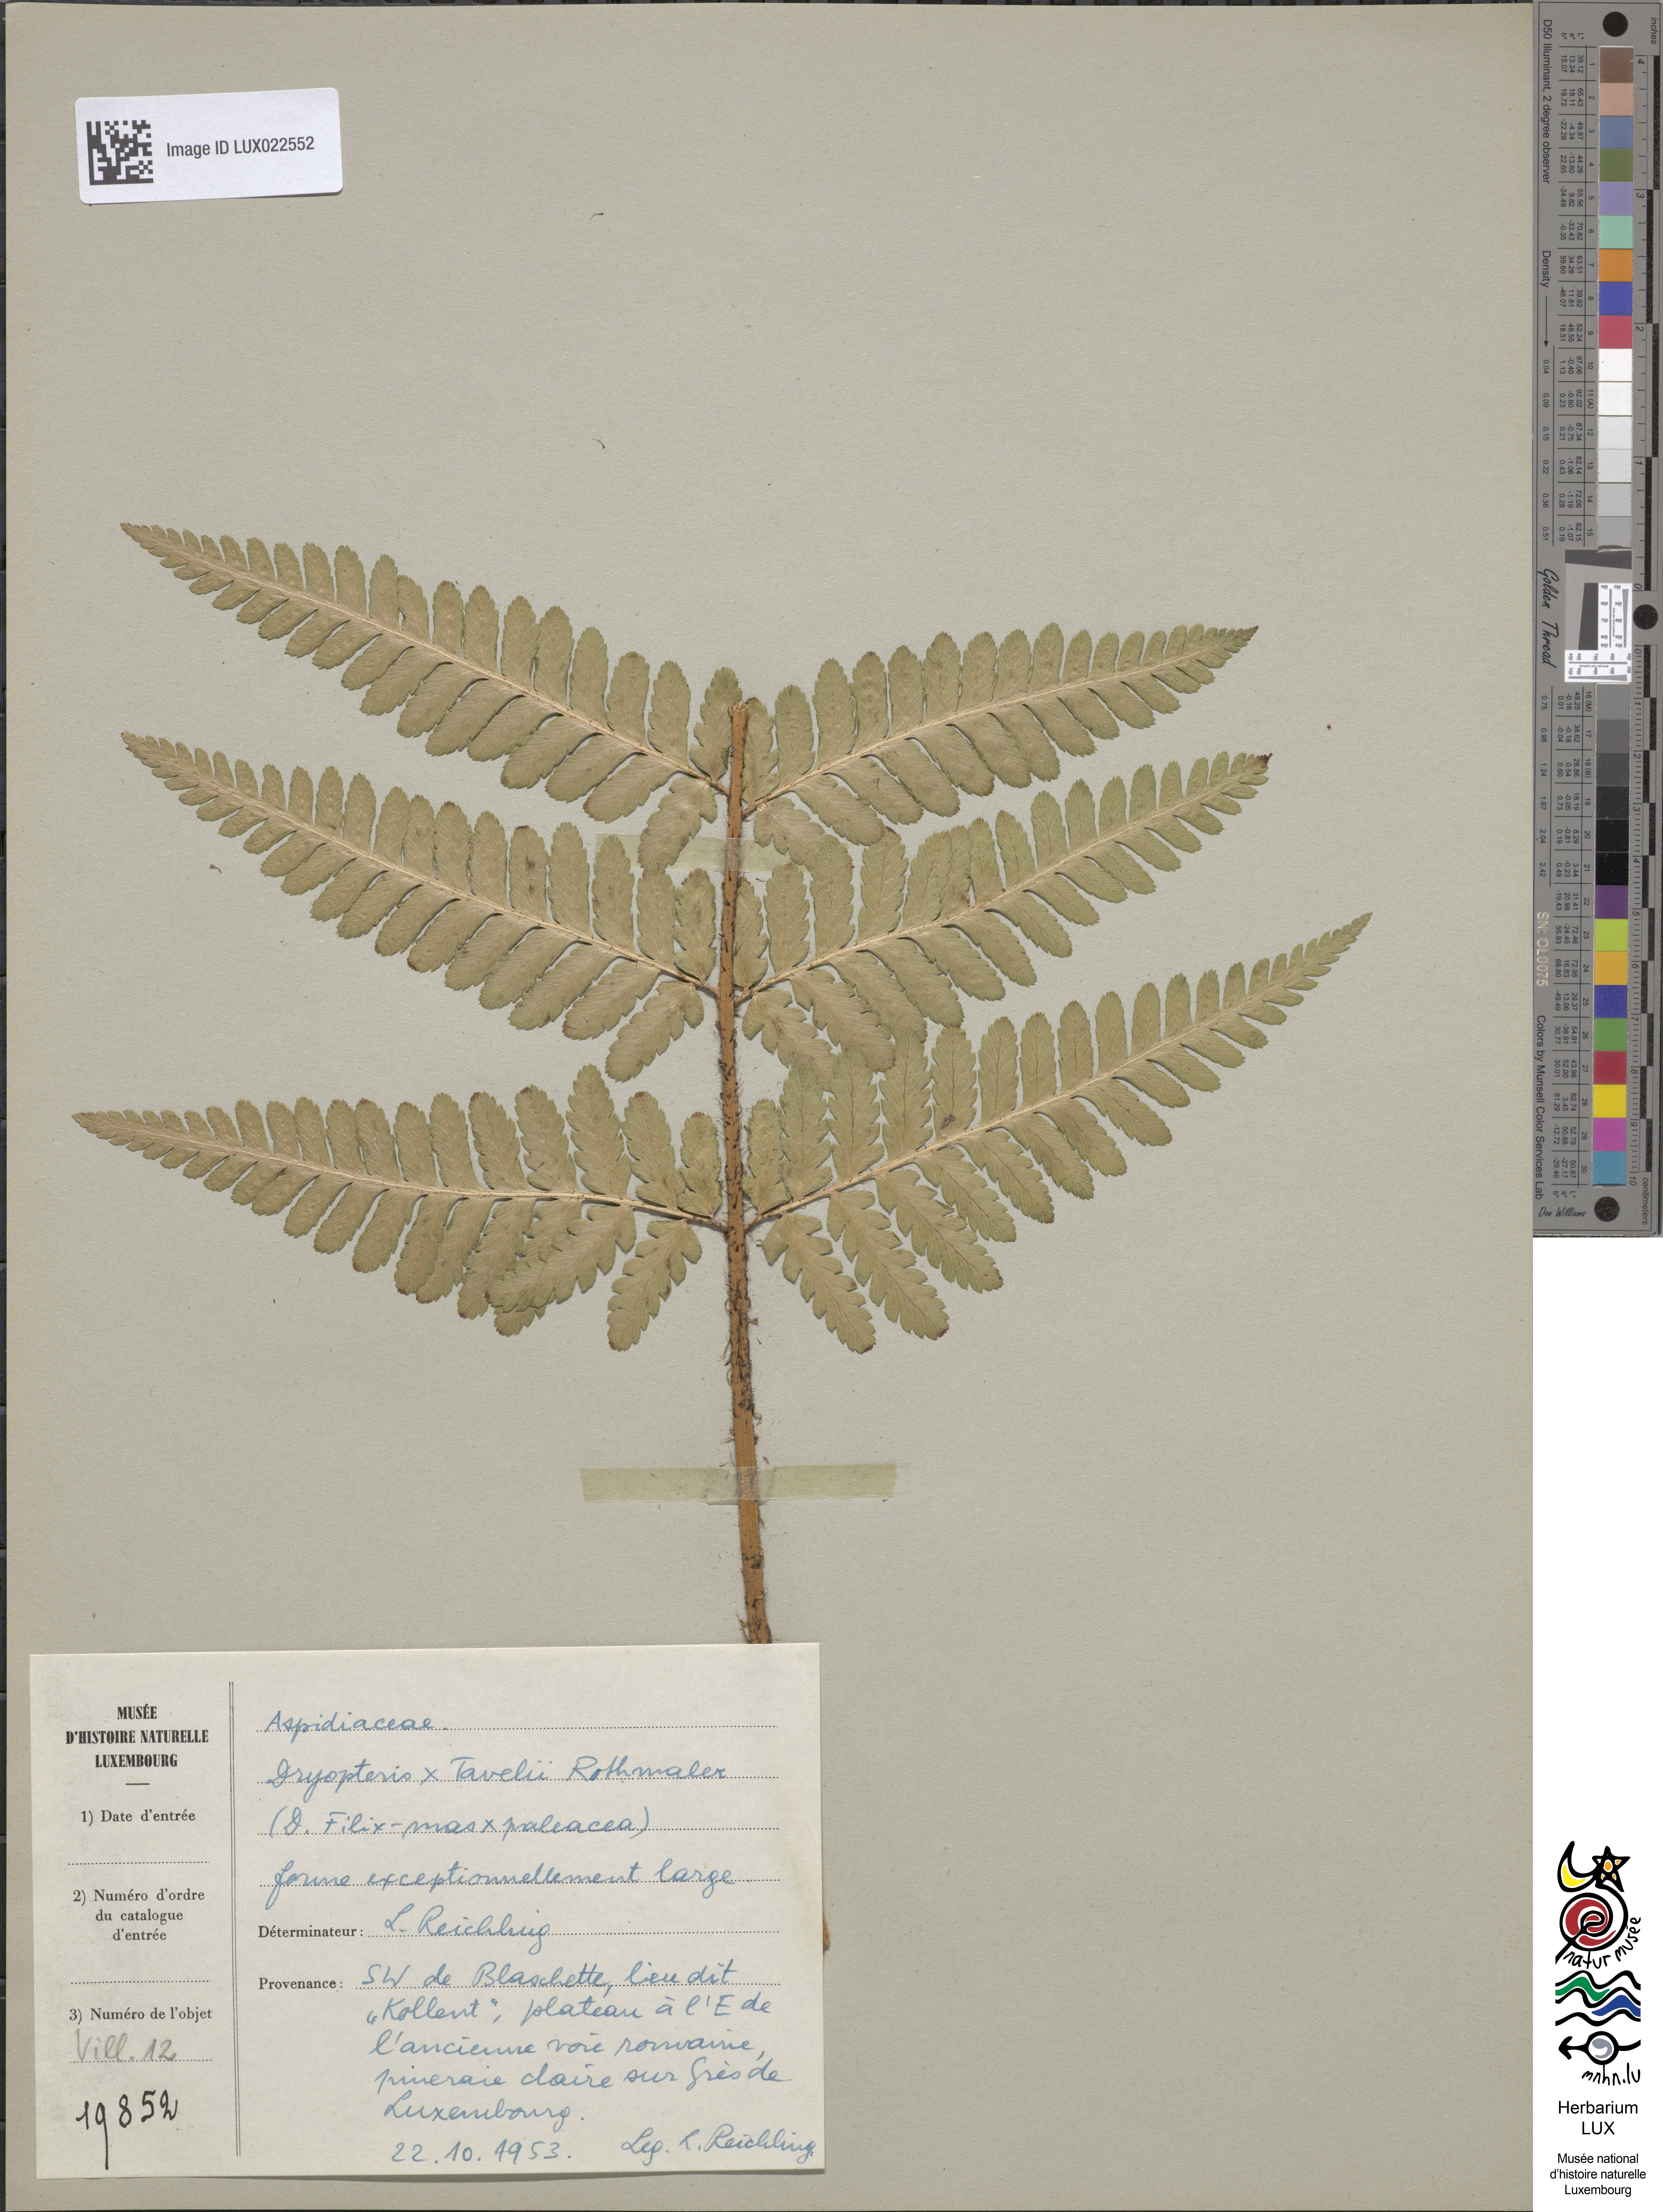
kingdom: Plantae
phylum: Tracheophyta
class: Polypodiopsida
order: Polypodiales
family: Dryopteridaceae
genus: Dryopteris
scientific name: Dryopteris borreri
